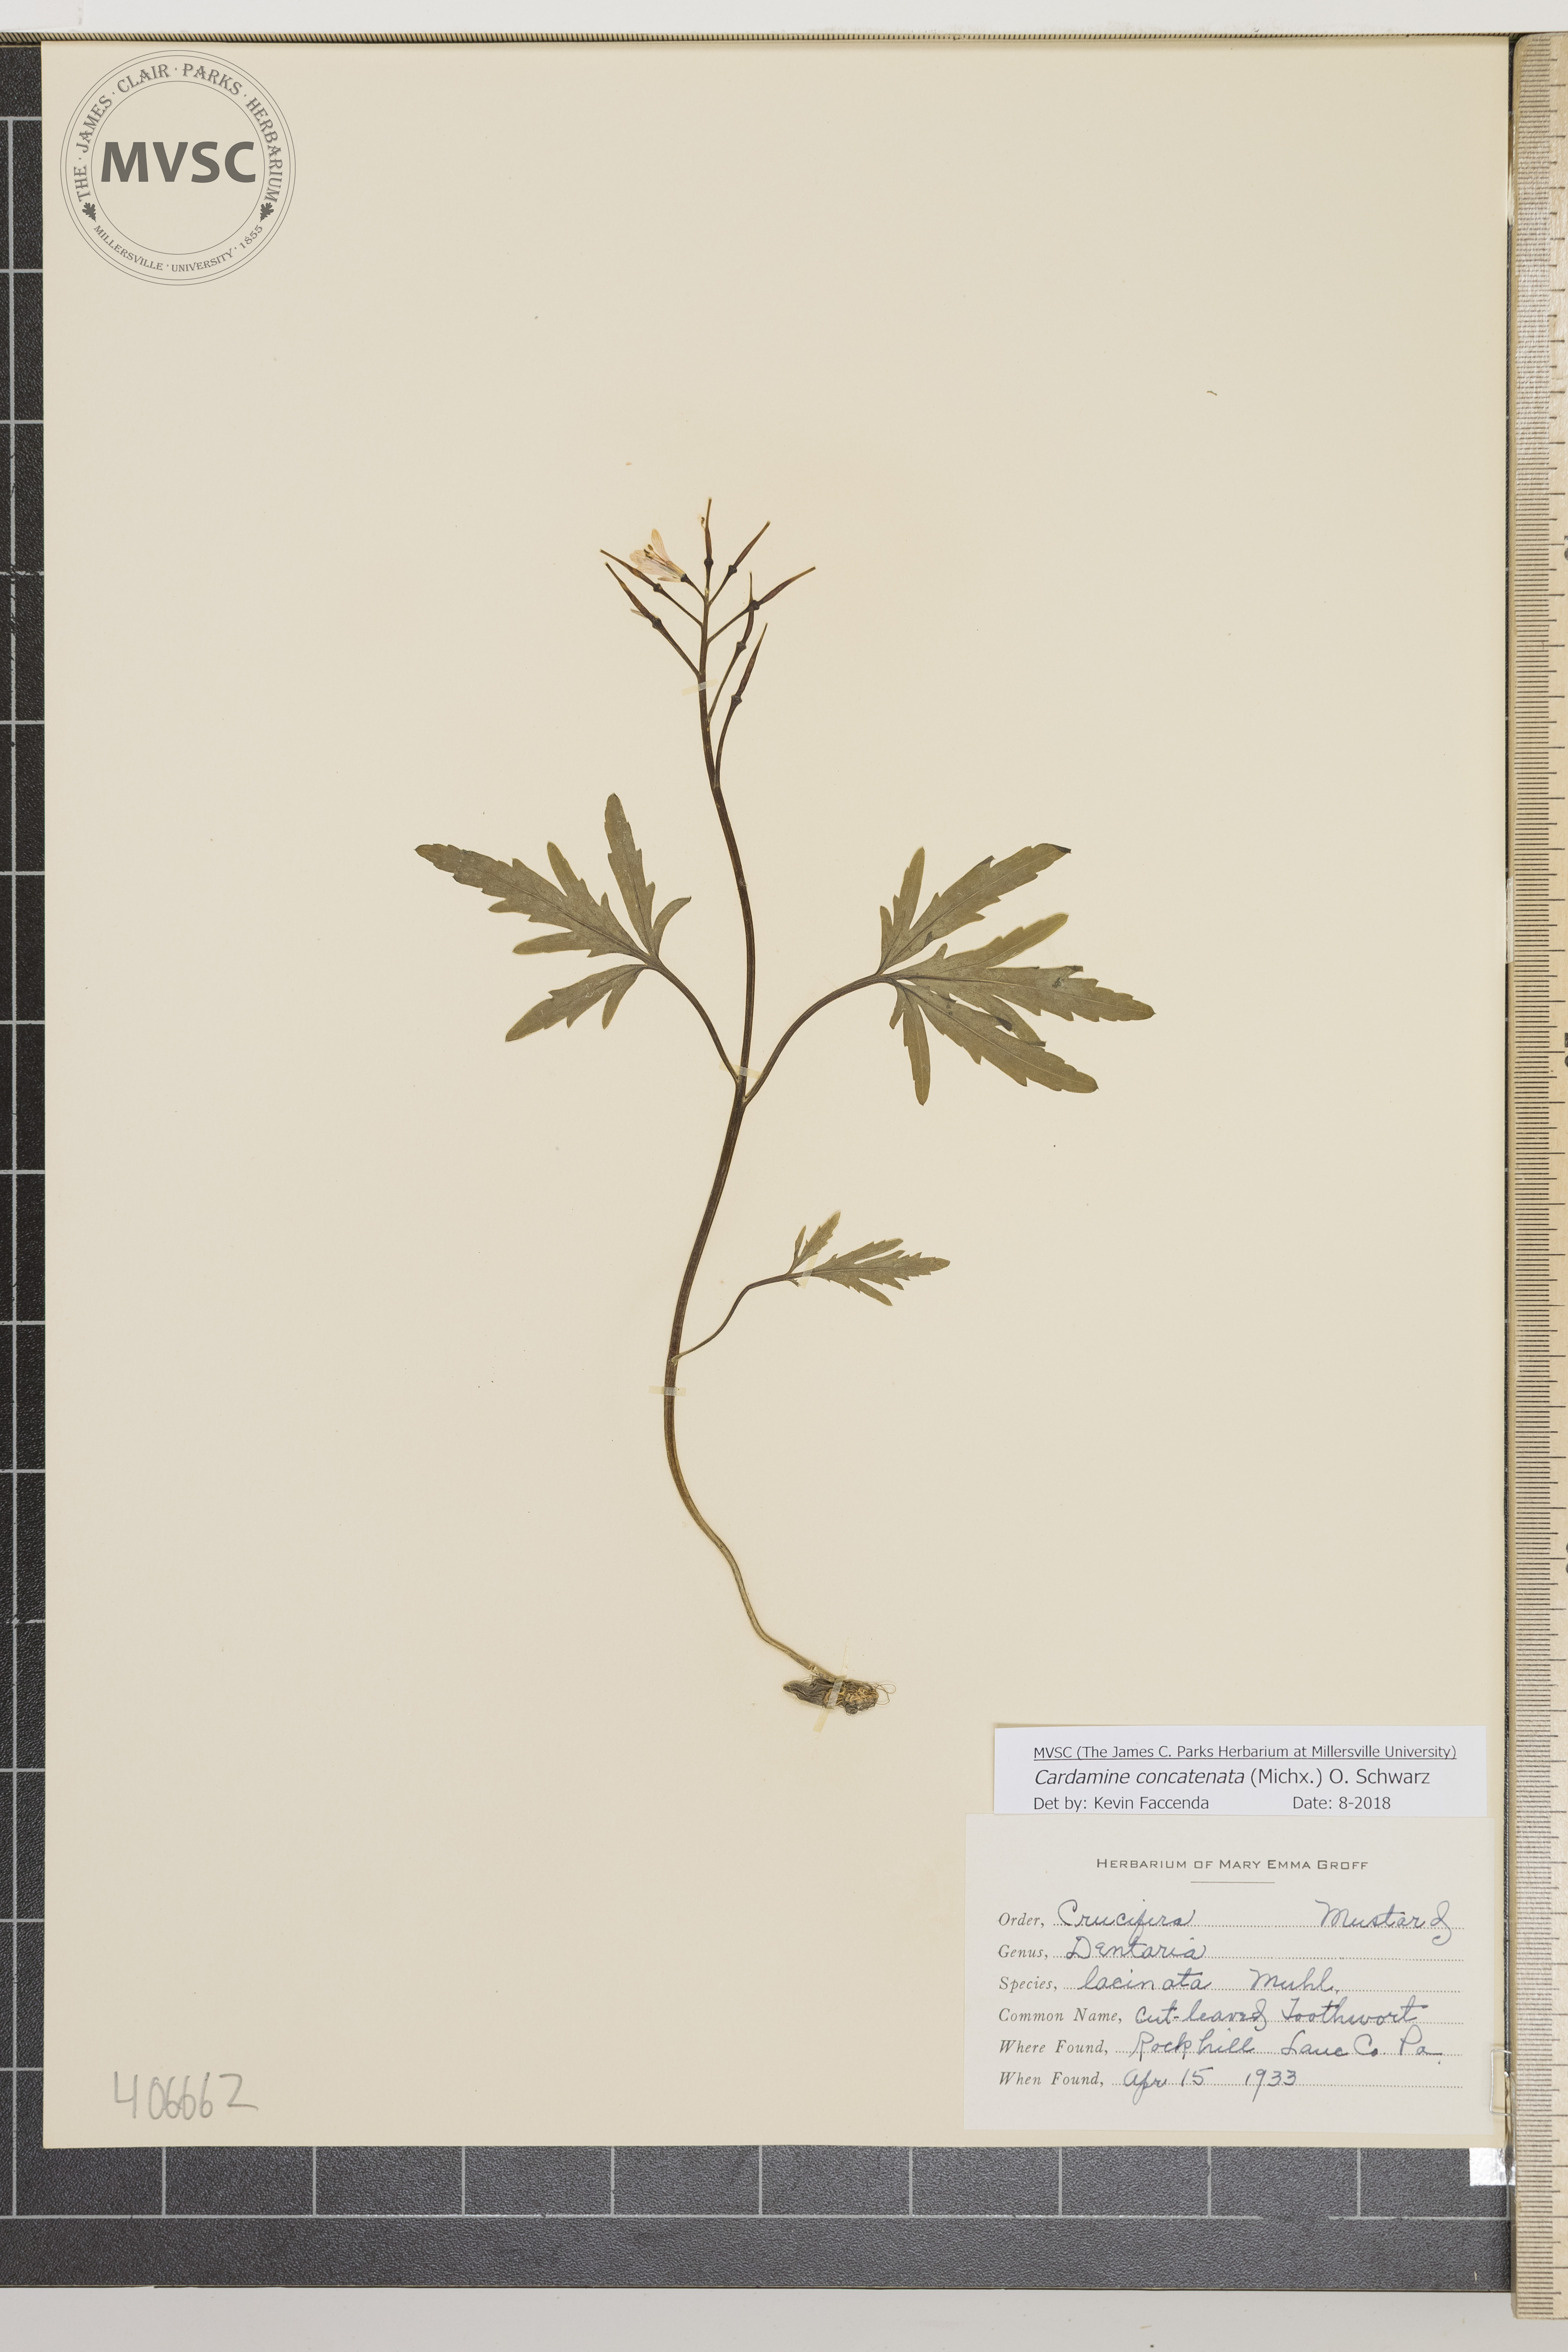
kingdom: Plantae
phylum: Tracheophyta
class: Magnoliopsida
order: Brassicales
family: Brassicaceae
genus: Cardamine
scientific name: Cardamine concatenata
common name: Cut-leaved Toothwort
